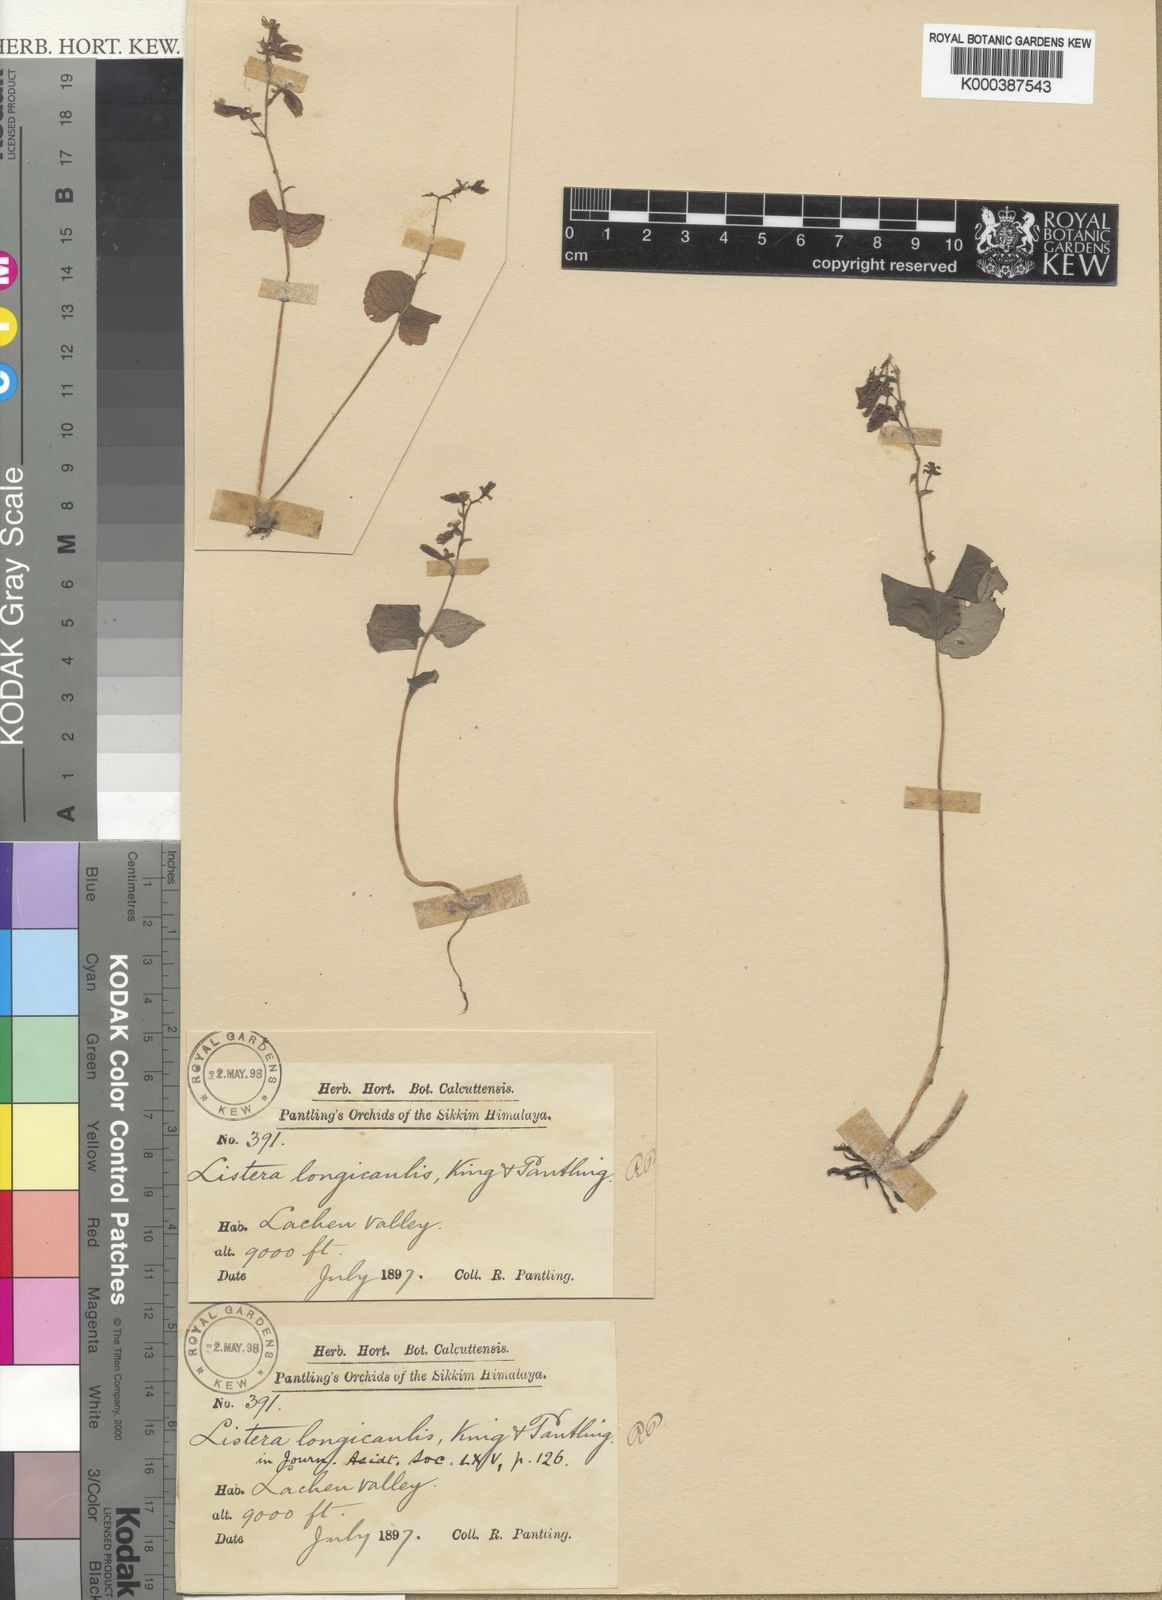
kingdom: Plantae
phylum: Tracheophyta
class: Liliopsida
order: Asparagales
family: Orchidaceae
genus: Neottia
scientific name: Neottia longicaulis
